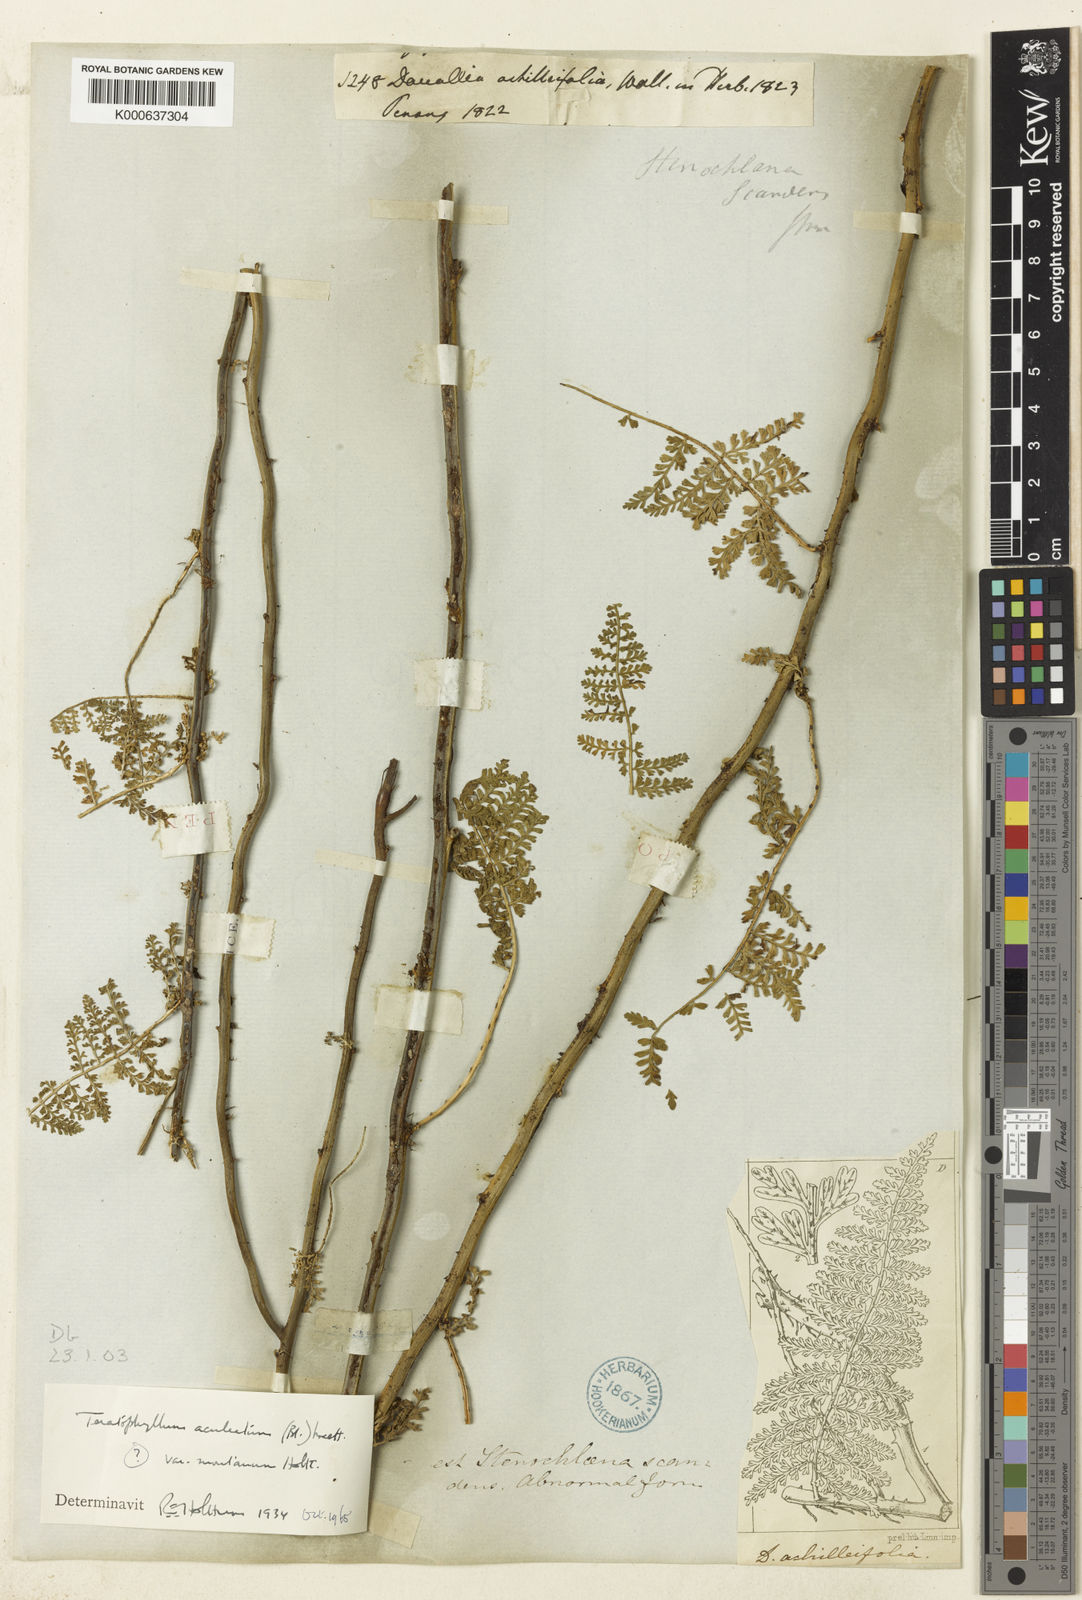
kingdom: Plantae
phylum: Tracheophyta
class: Polypodiopsida
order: Polypodiales
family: Dryopteridaceae
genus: Teratophyllum
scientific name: Teratophyllum aculeatum
